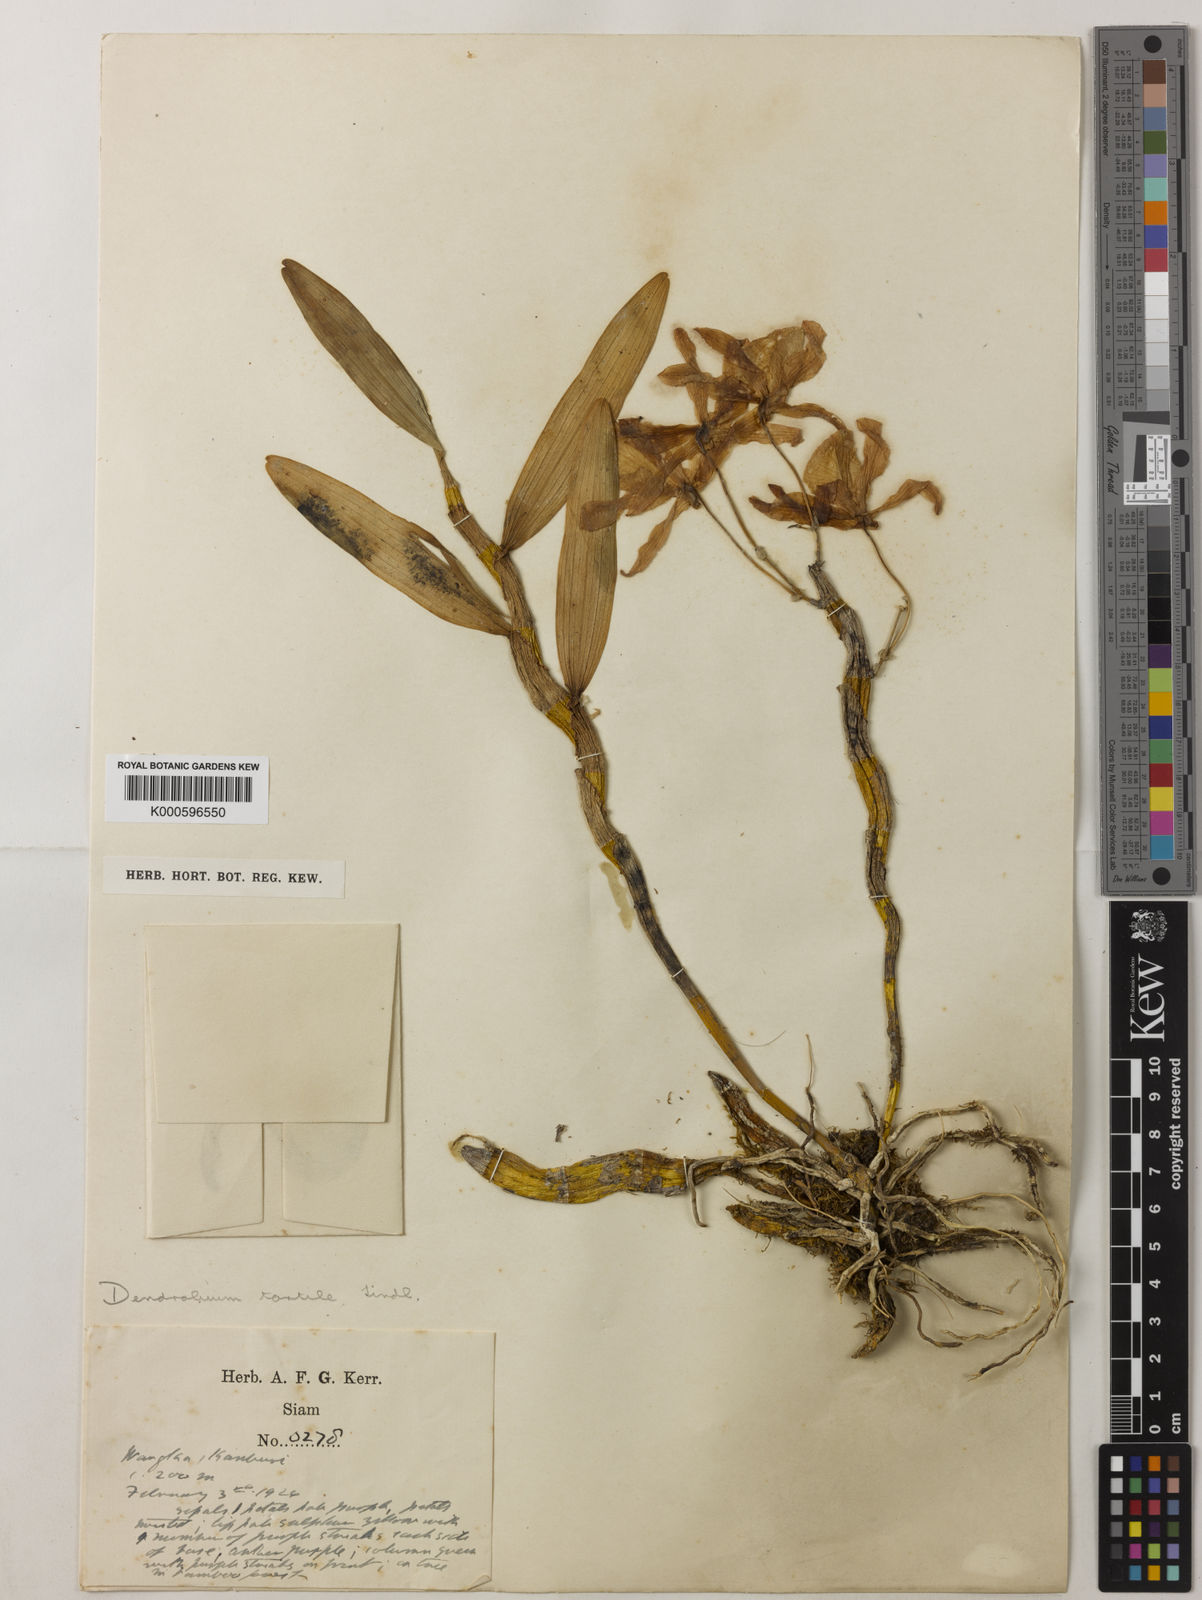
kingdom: Plantae
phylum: Tracheophyta
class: Liliopsida
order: Asparagales
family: Orchidaceae
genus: Dendrobium
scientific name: Dendrobium tortile
